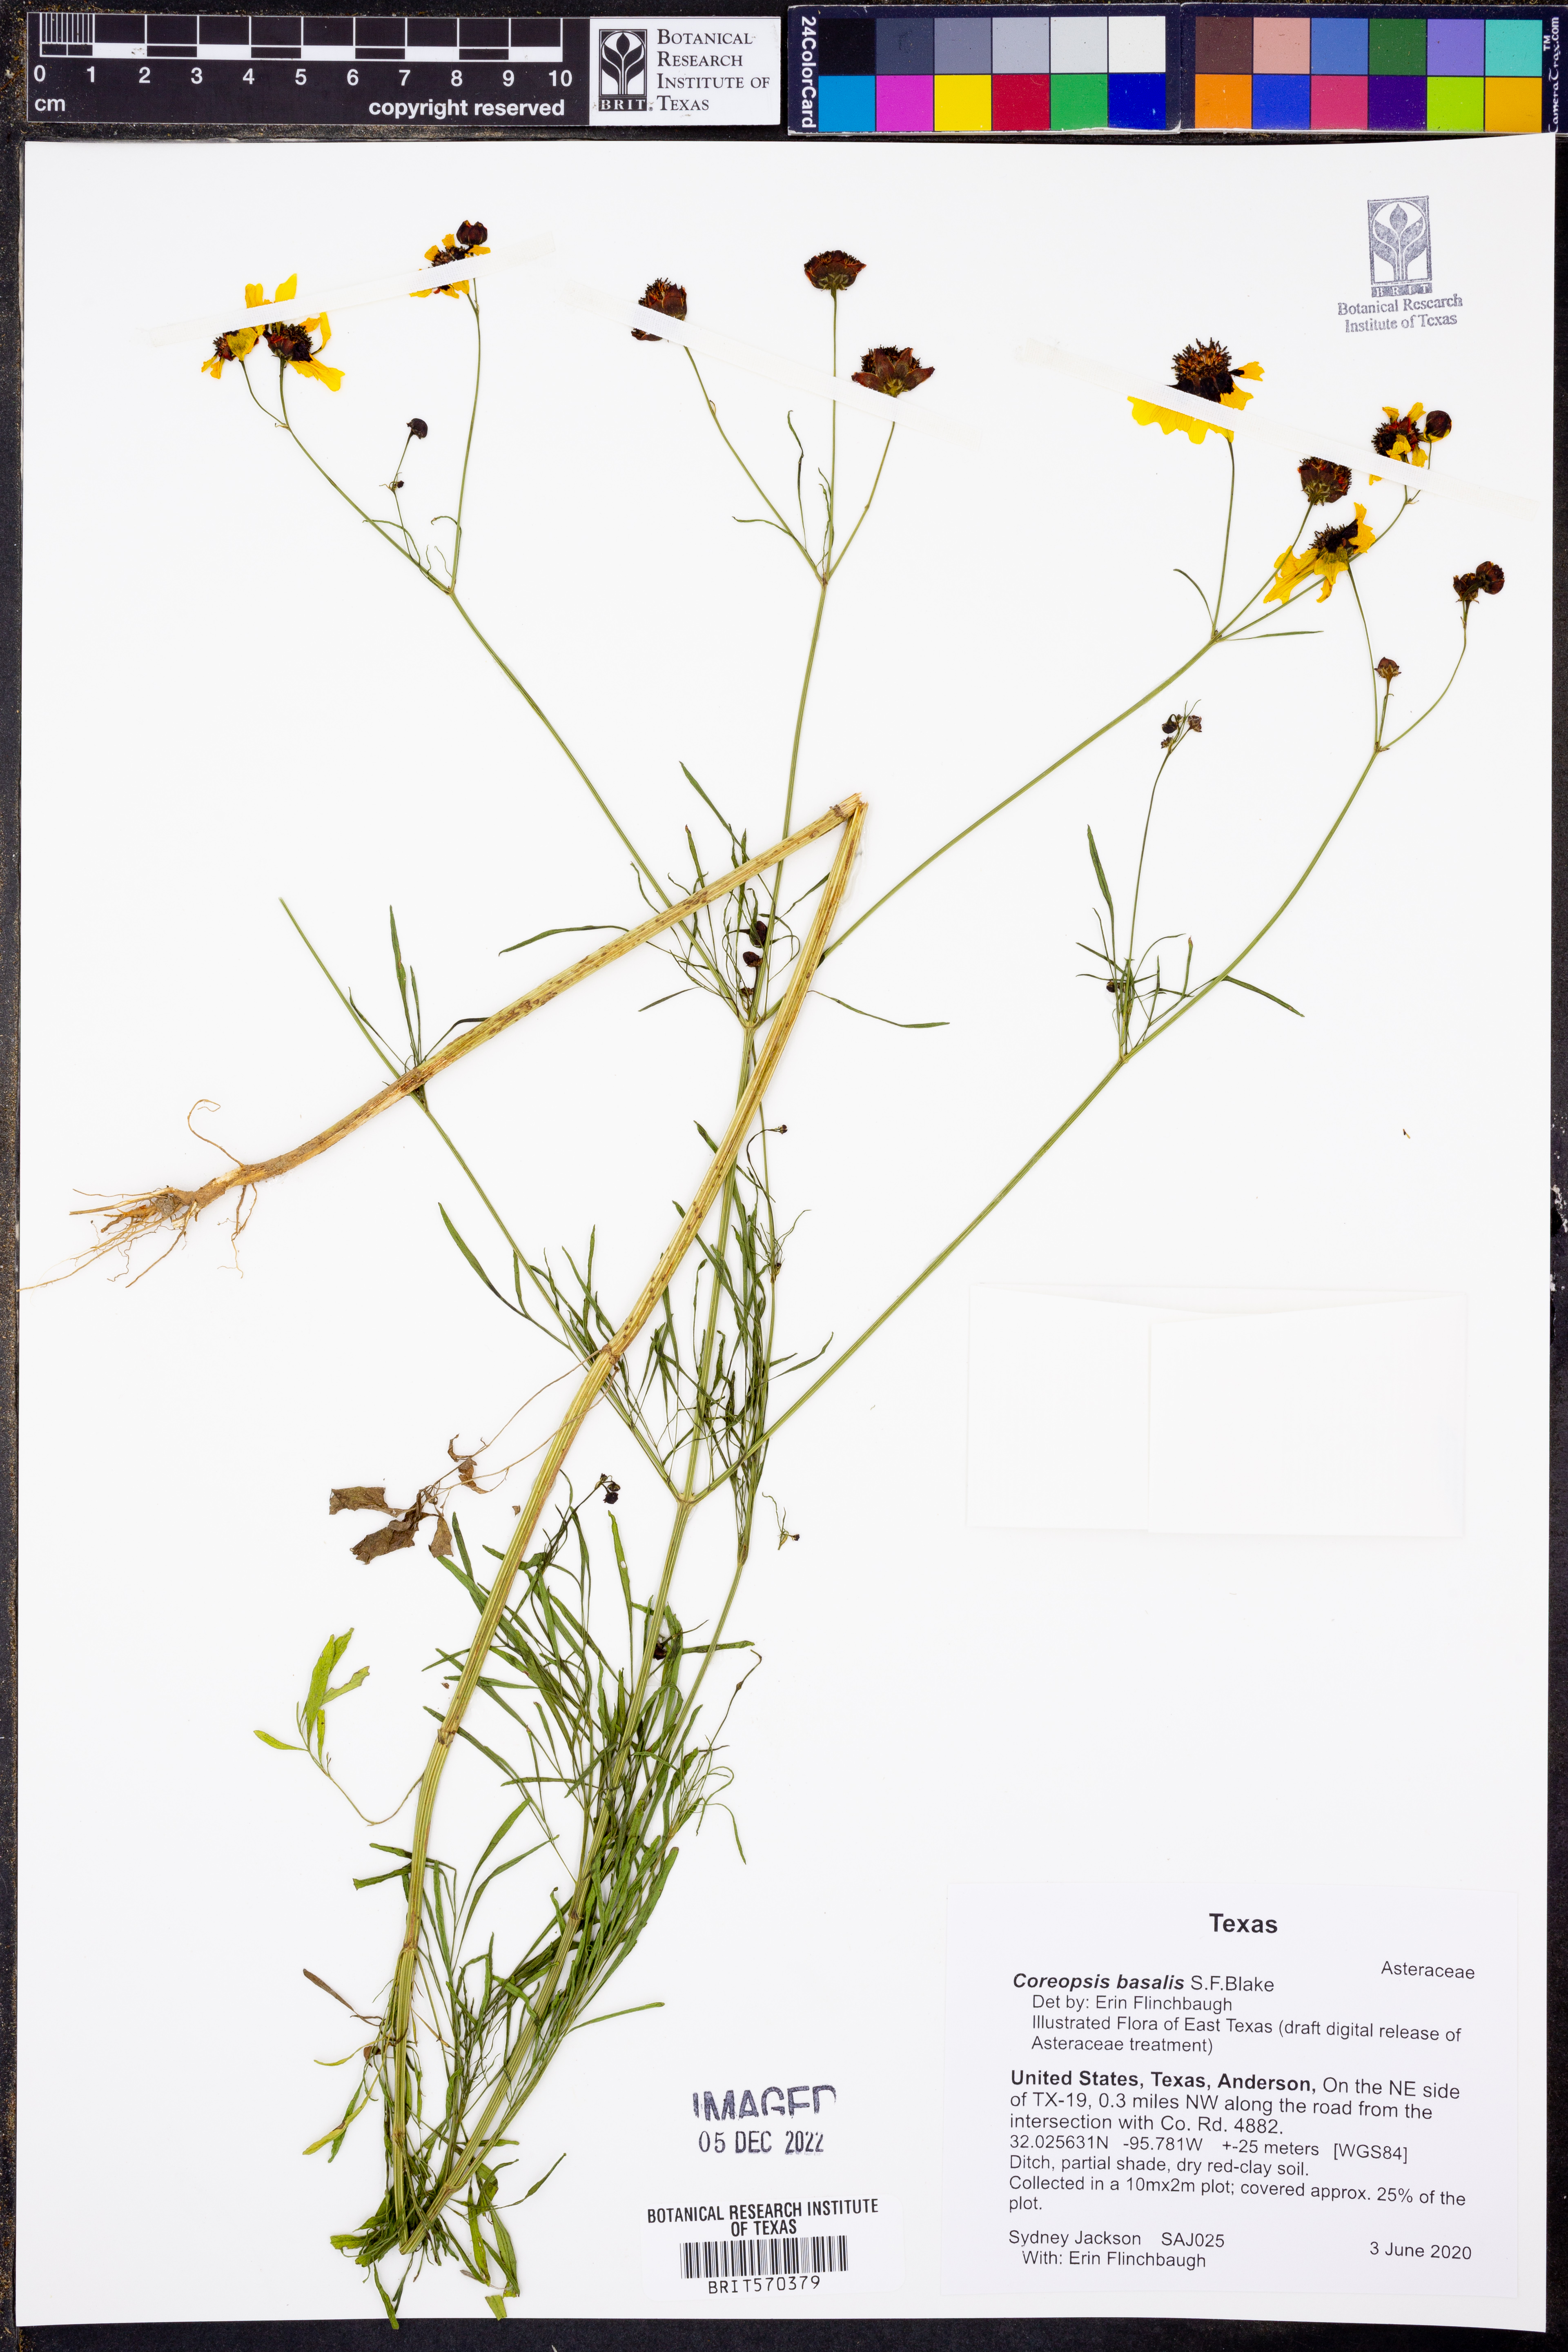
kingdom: Plantae
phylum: Tracheophyta
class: Magnoliopsida
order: Asterales
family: Asteraceae
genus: Coreopsis
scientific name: Coreopsis basalis
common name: Golden-mane coreopsis
